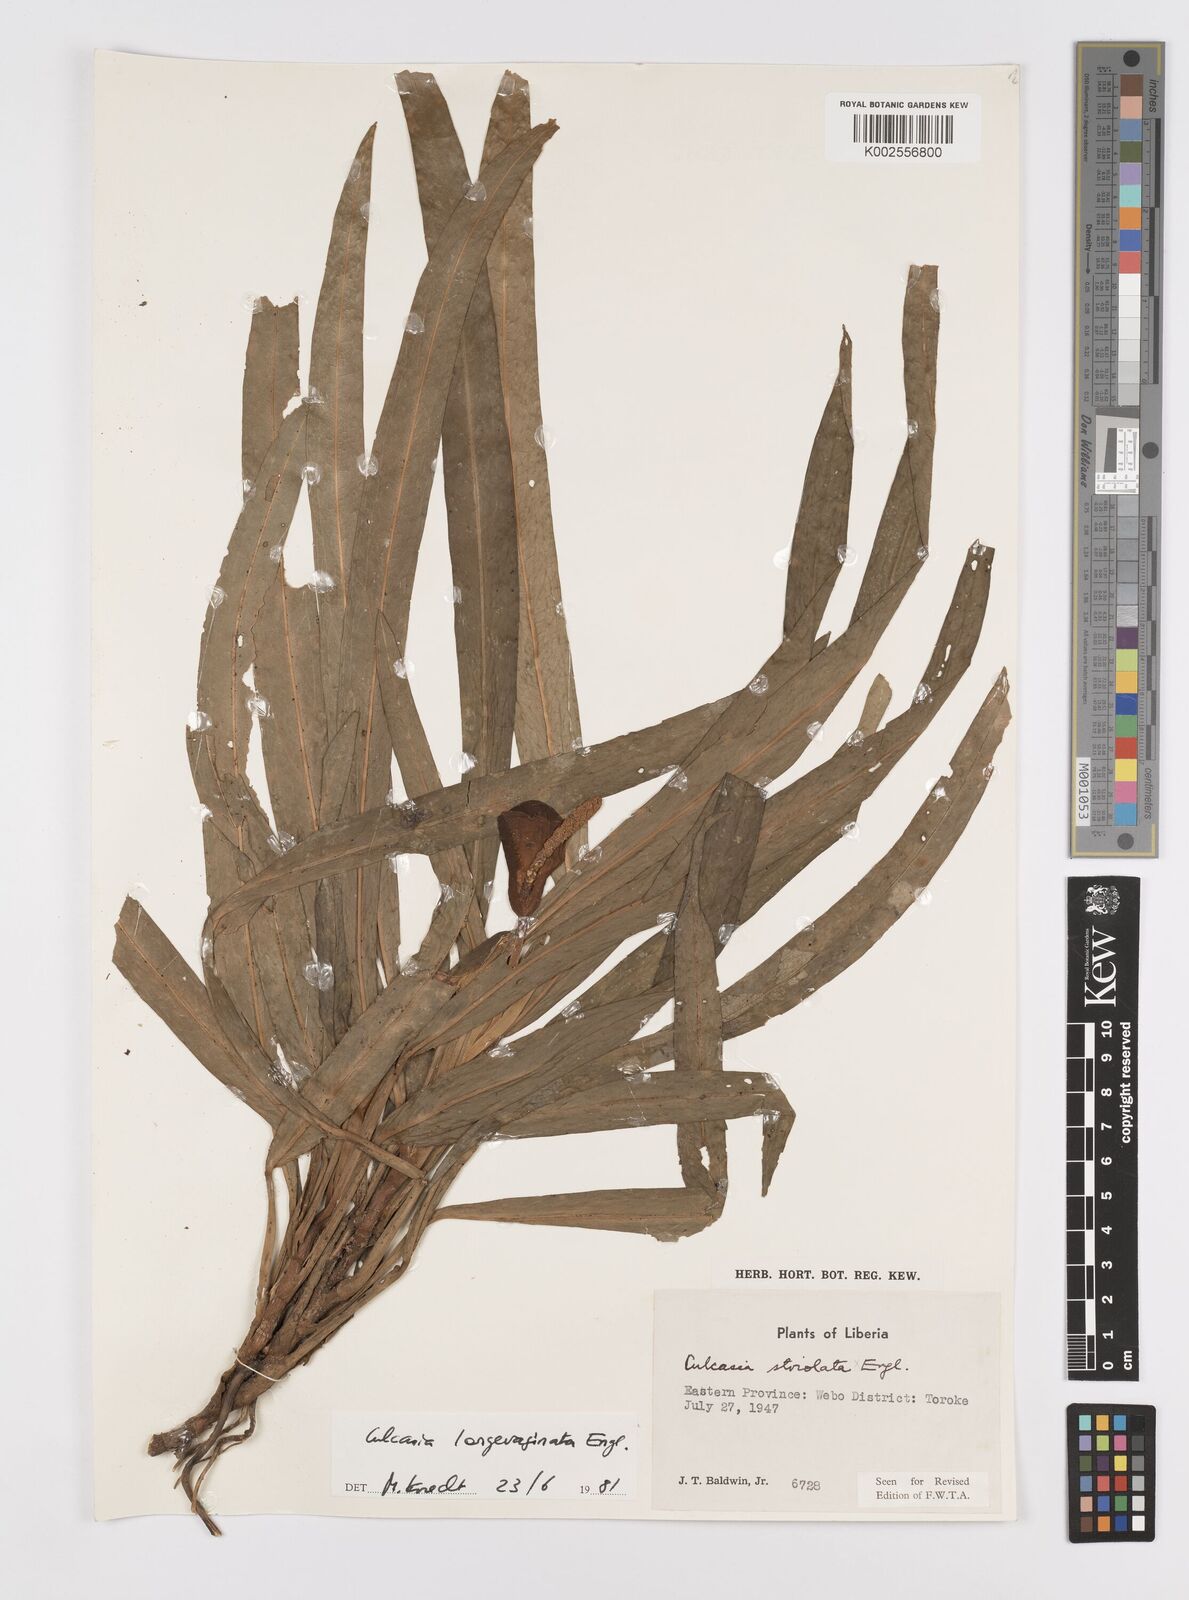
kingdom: Plantae
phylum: Tracheophyta
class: Liliopsida
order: Alismatales
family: Araceae
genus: Culcasia
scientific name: Culcasia striolata
